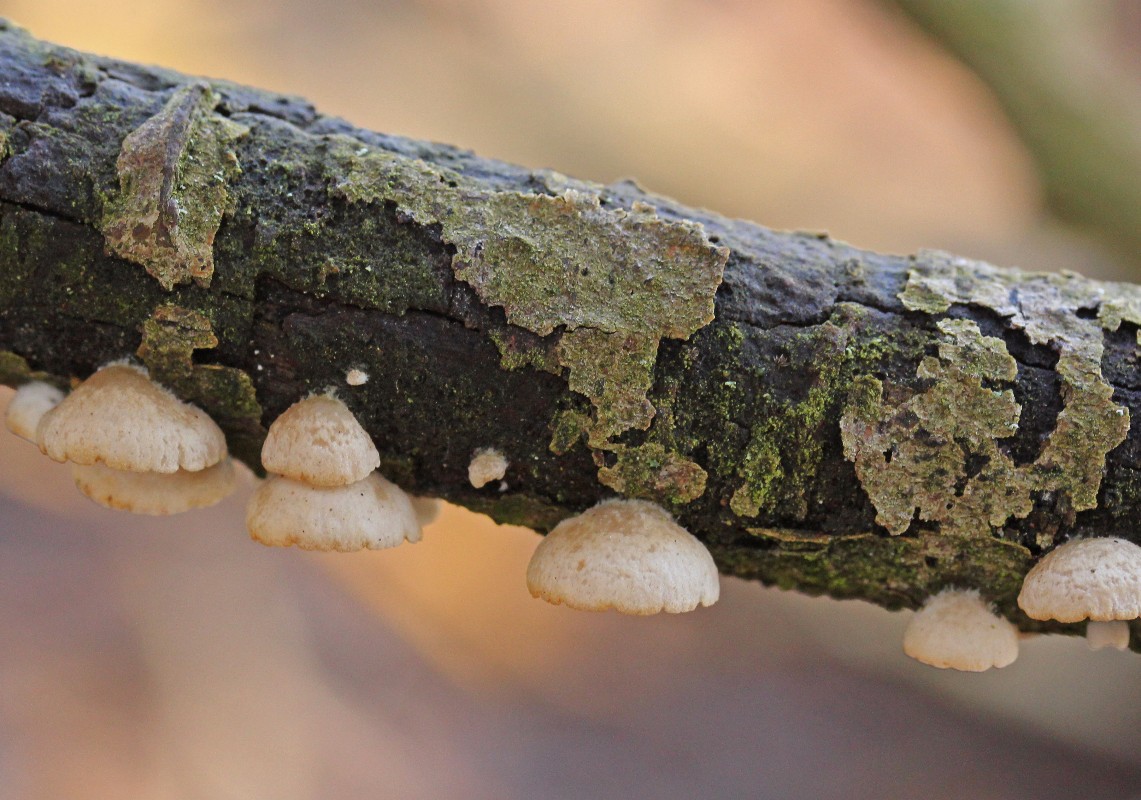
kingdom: Fungi
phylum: Basidiomycota
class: Agaricomycetes
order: Agaricales
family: Crepidotaceae
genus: Crepidotus
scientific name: Crepidotus cesatii
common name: almindelig muslingesvamp
